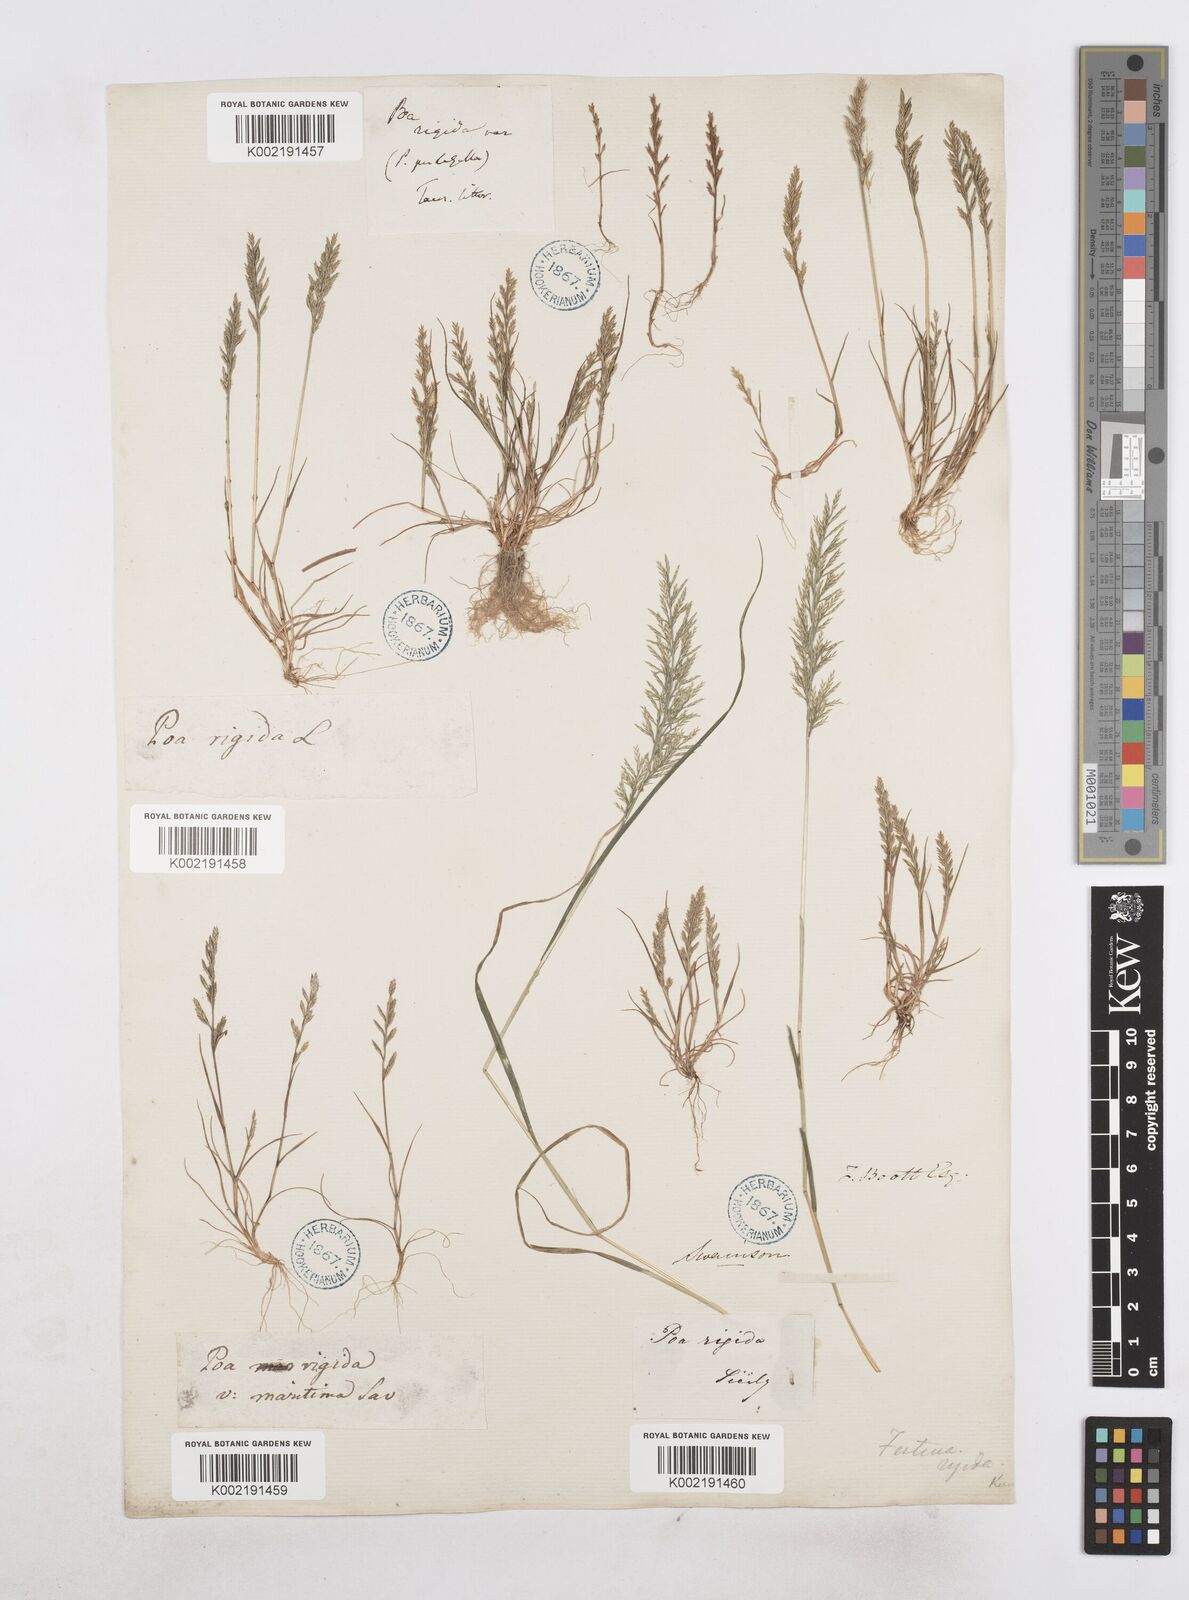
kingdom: Plantae
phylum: Tracheophyta
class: Liliopsida
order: Poales
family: Poaceae
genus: Catapodium
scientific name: Catapodium rigidum
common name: Fern-grass
